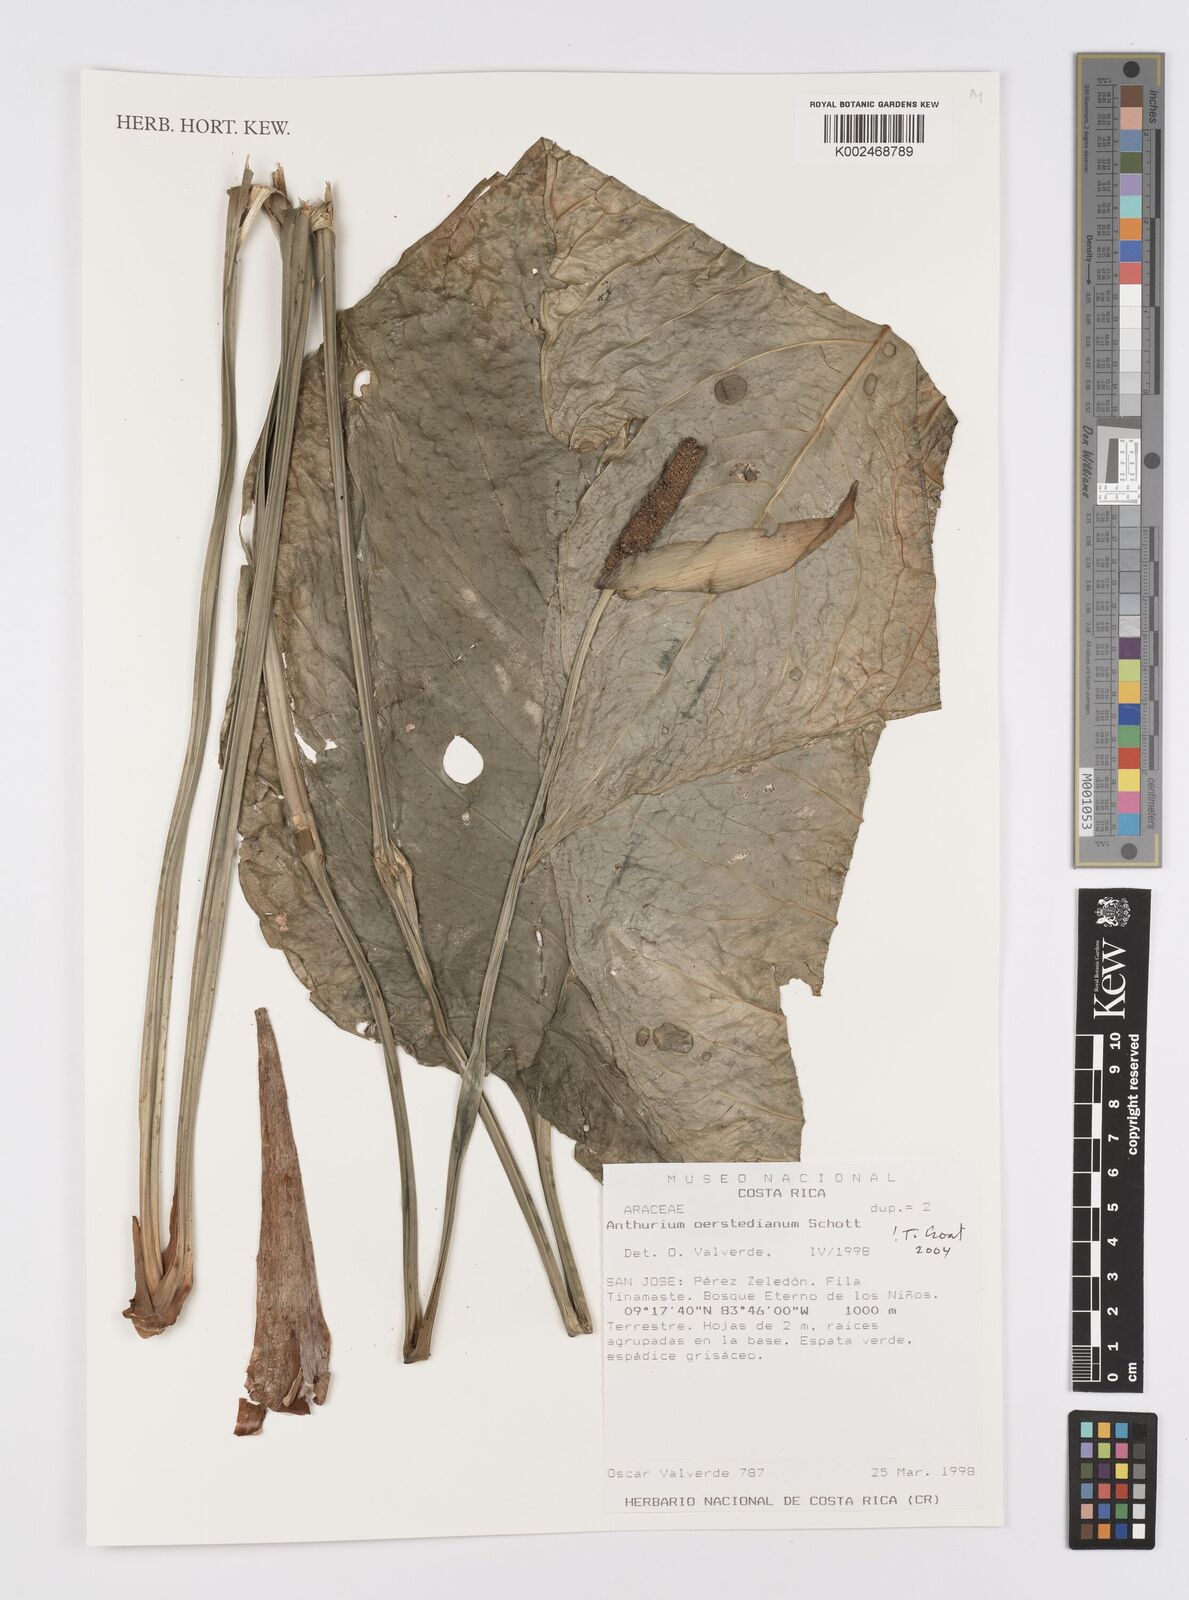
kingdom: Plantae
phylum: Tracheophyta
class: Liliopsida
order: Alismatales
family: Araceae
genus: Anthurium
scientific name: Anthurium oerstedianum
